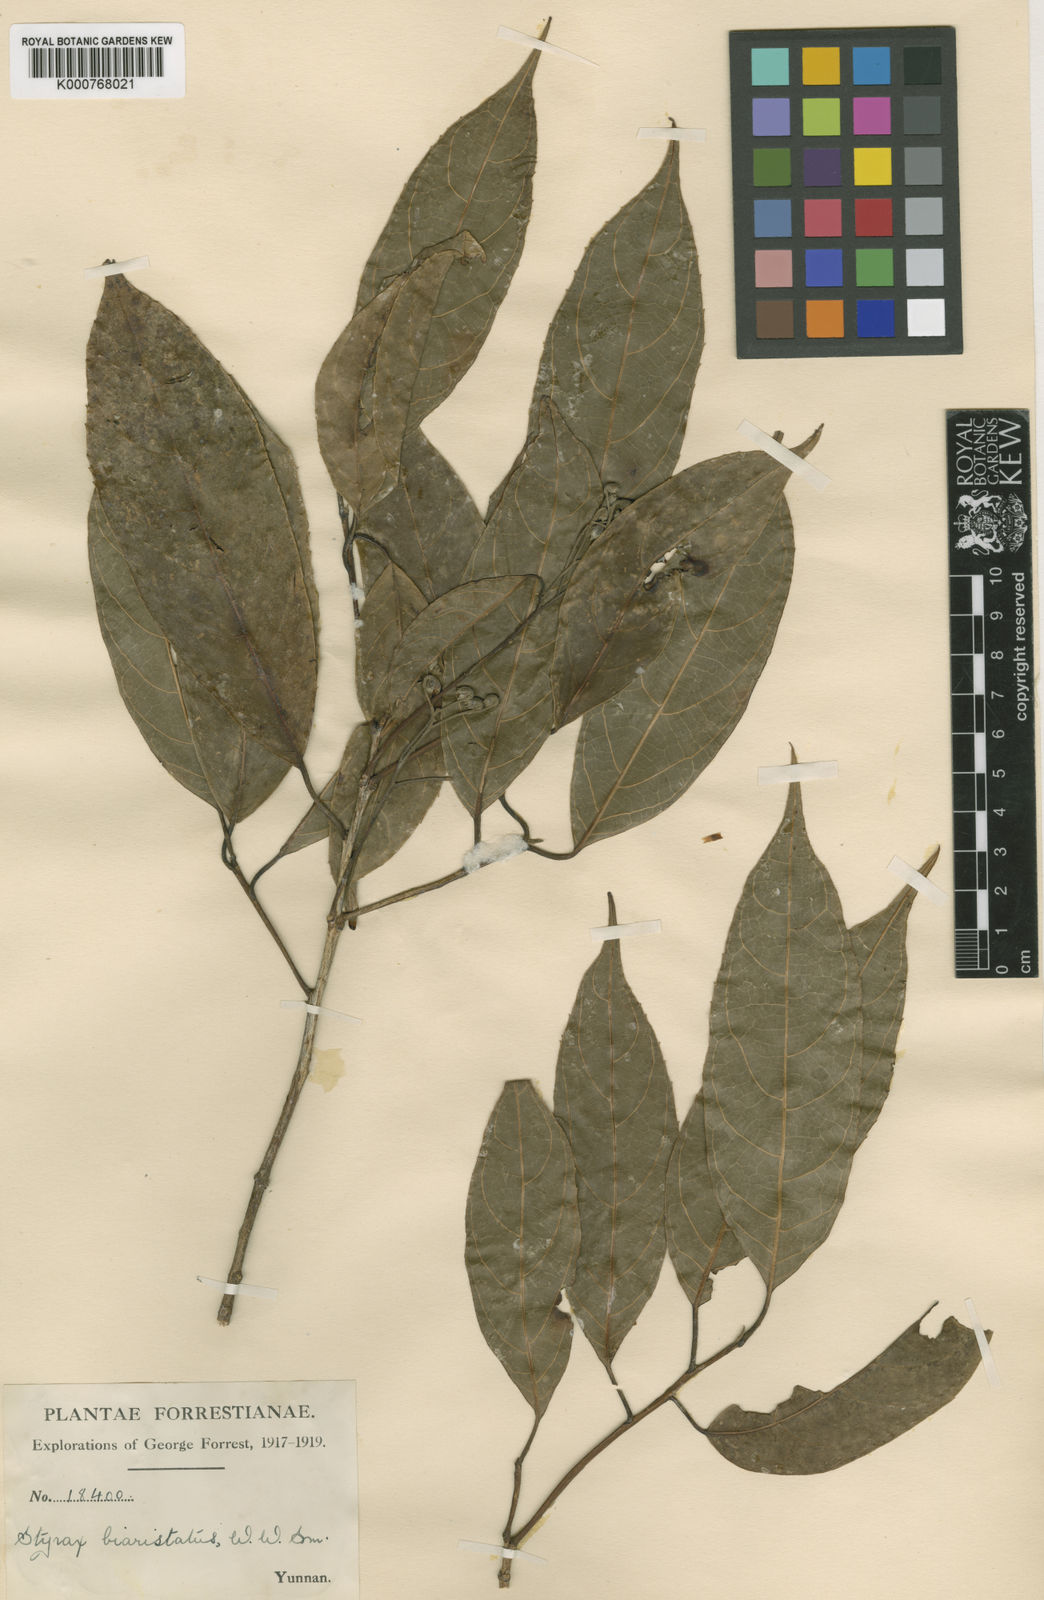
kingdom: Plantae
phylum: Tracheophyta
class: Magnoliopsida
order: Ericales
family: Styracaceae
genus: Huodendron
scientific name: Huodendron biaristatum
